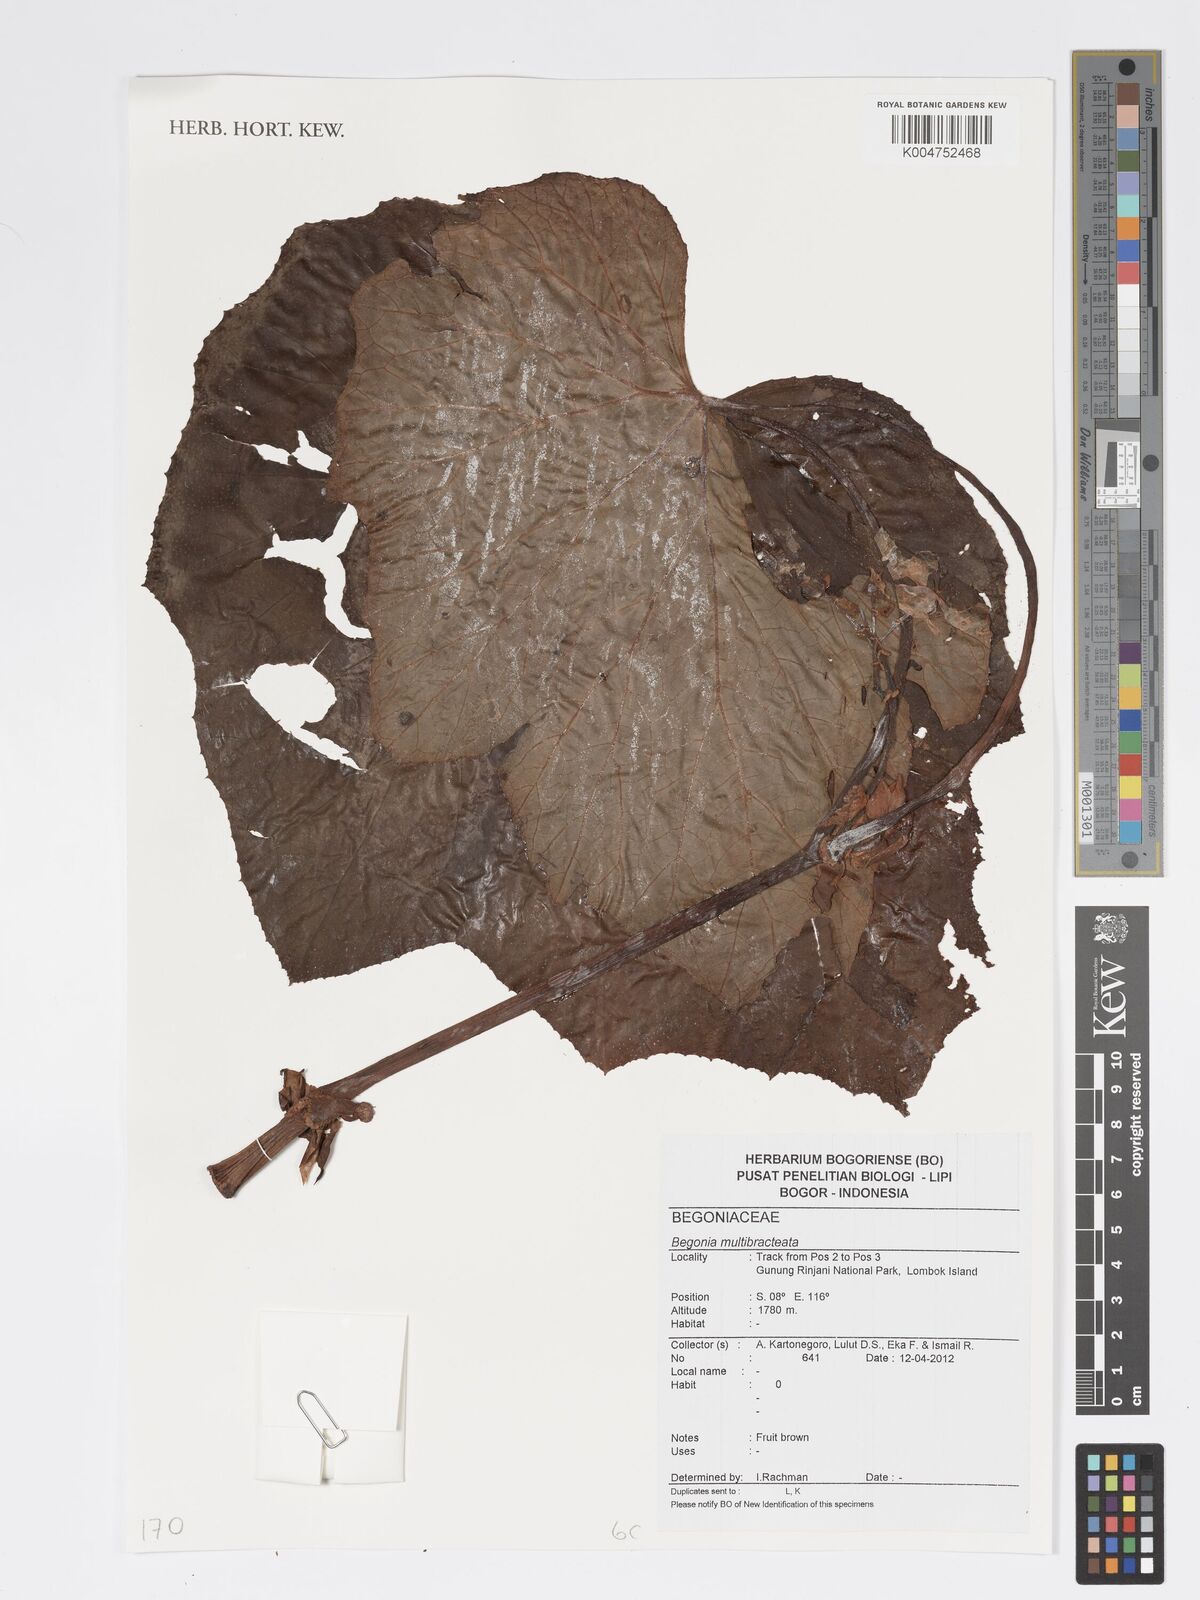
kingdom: Plantae
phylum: Tracheophyta
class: Magnoliopsida
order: Cucurbitales
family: Begoniaceae
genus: Begonia
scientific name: Begonia multibracteata
